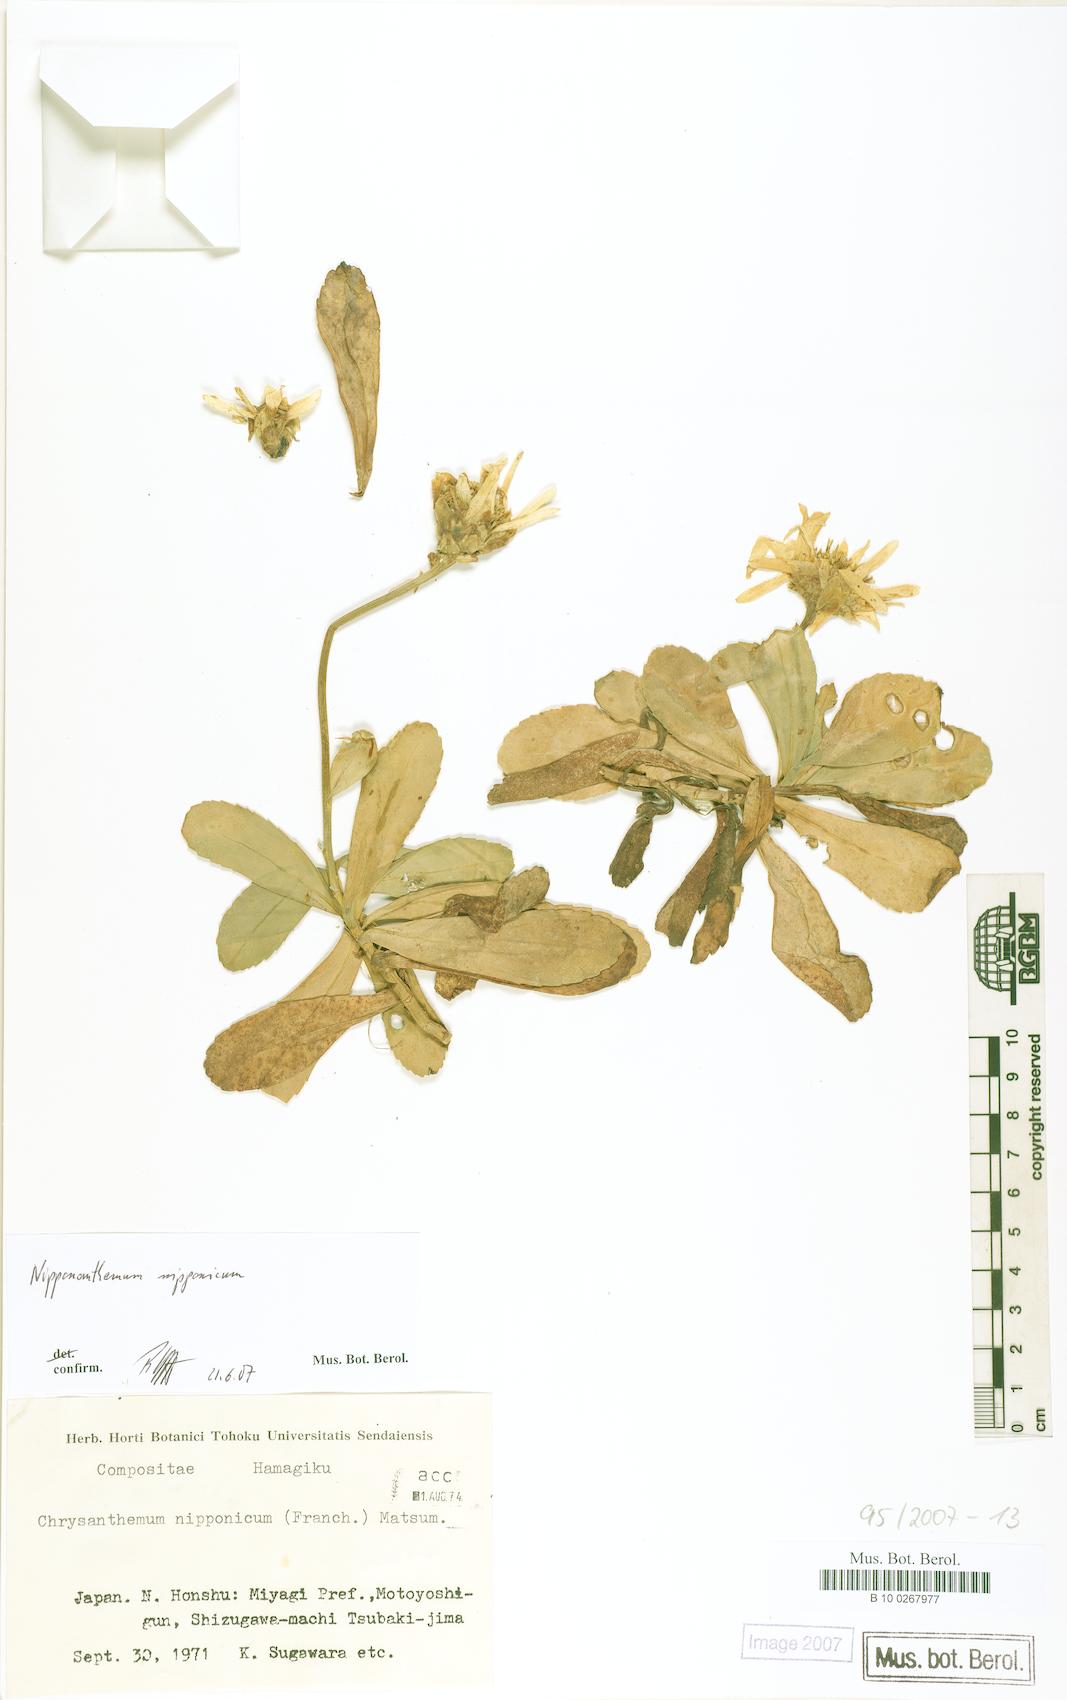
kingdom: Plantae
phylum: Tracheophyta
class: Magnoliopsida
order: Asterales
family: Asteraceae
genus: Nipponanthemum
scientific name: Nipponanthemum nipponicum
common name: Nippon daisy
